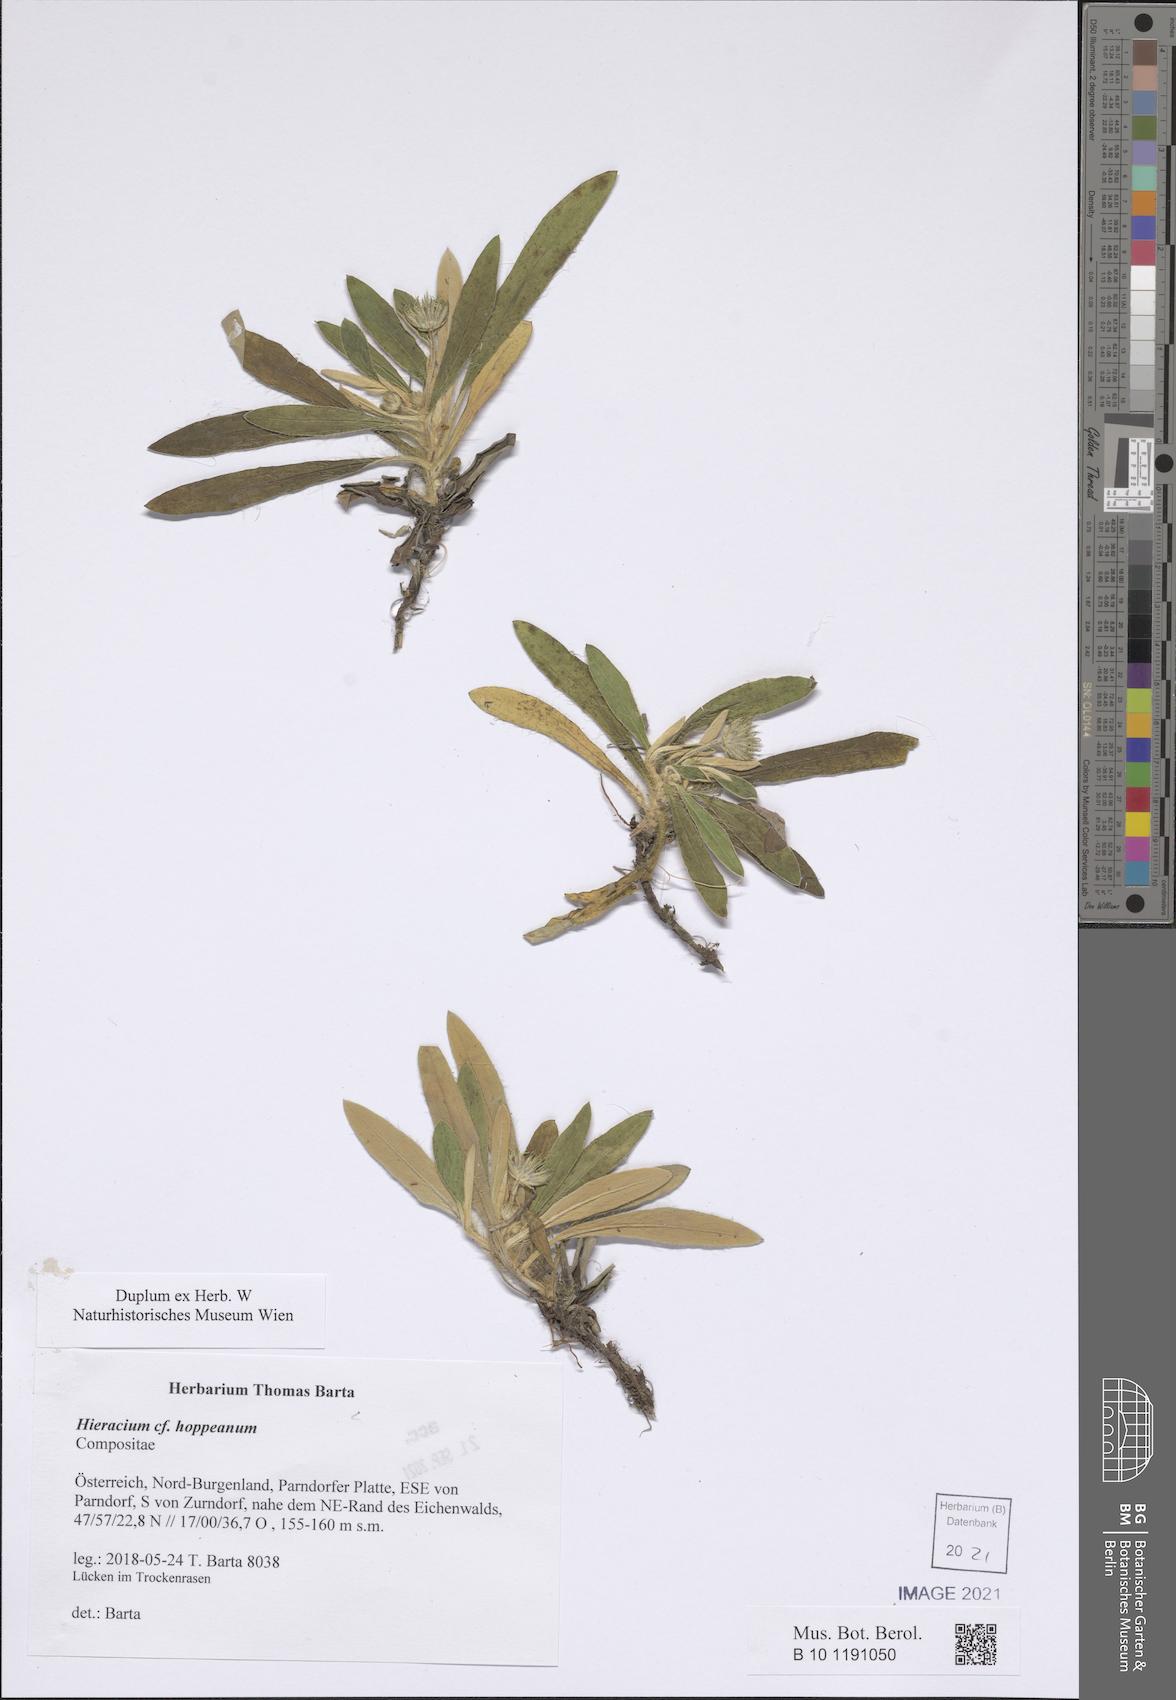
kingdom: Plantae
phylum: Tracheophyta
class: Magnoliopsida
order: Asterales
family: Asteraceae
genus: Pilosella
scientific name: Pilosella hoppeana
